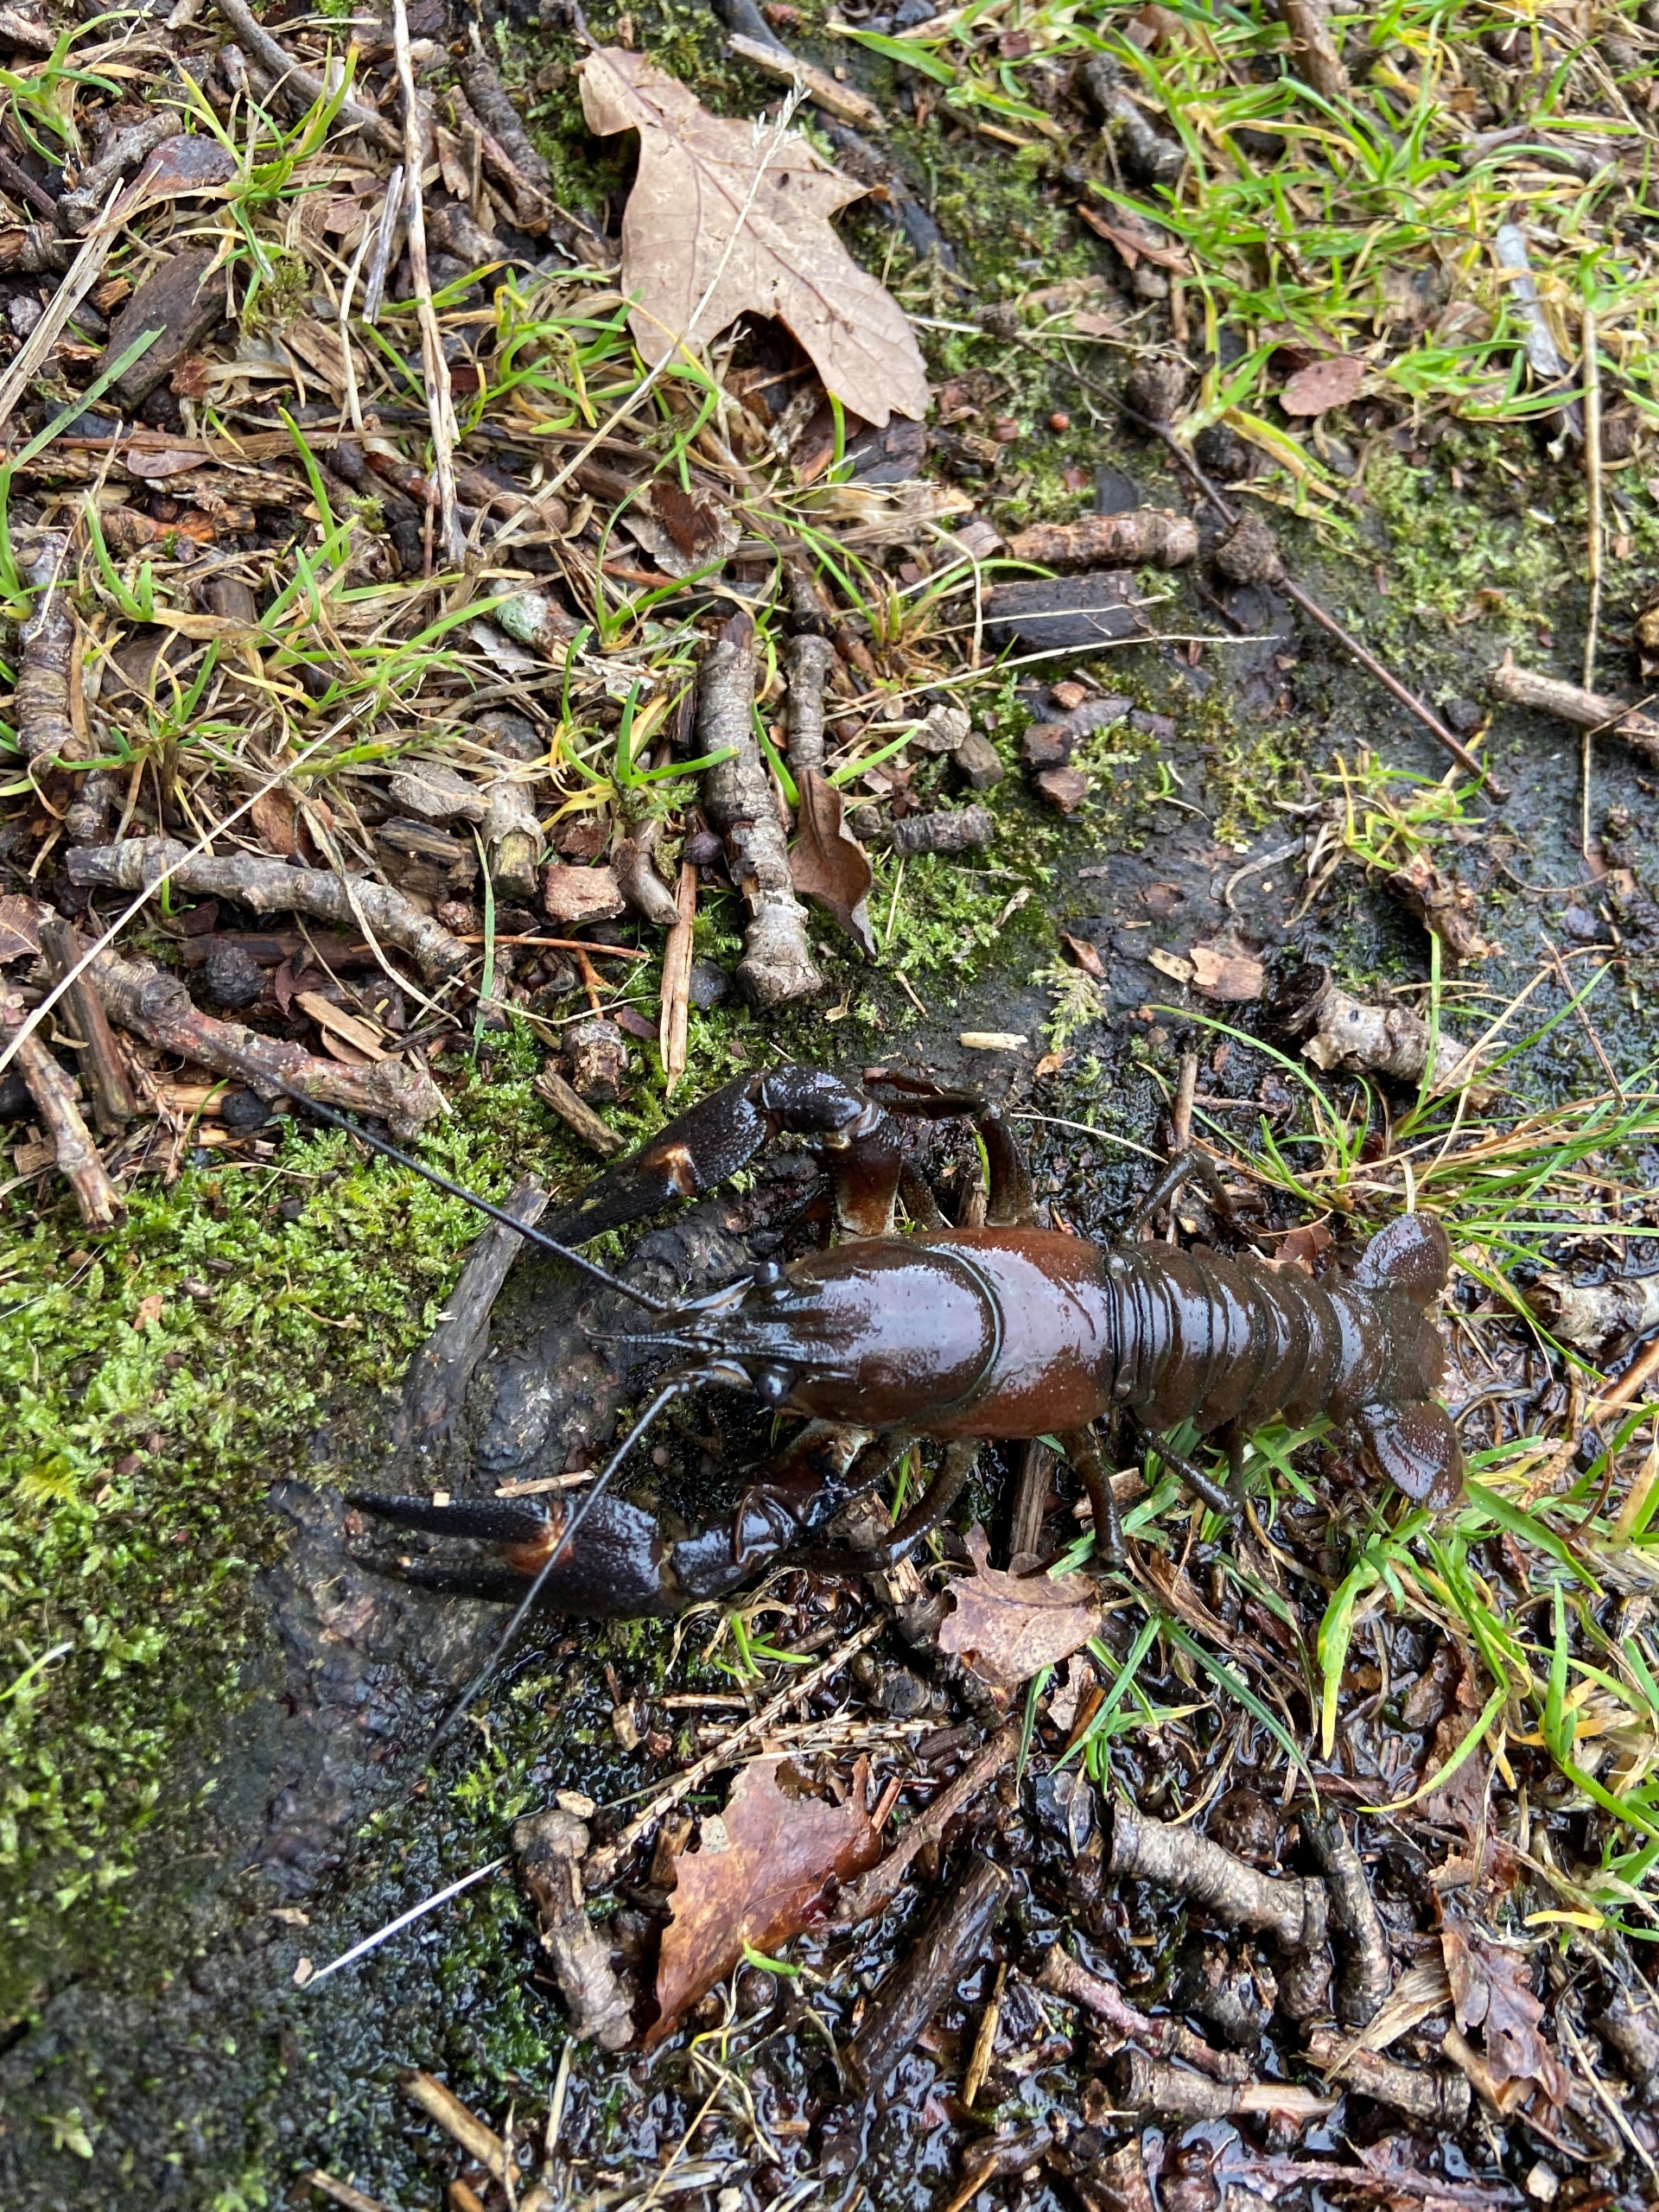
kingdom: Animalia
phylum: Arthropoda
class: Malacostraca
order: Decapoda
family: Astacidae
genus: Pacifastacus
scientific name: Pacifastacus leniusculus
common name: Signalkrebs
